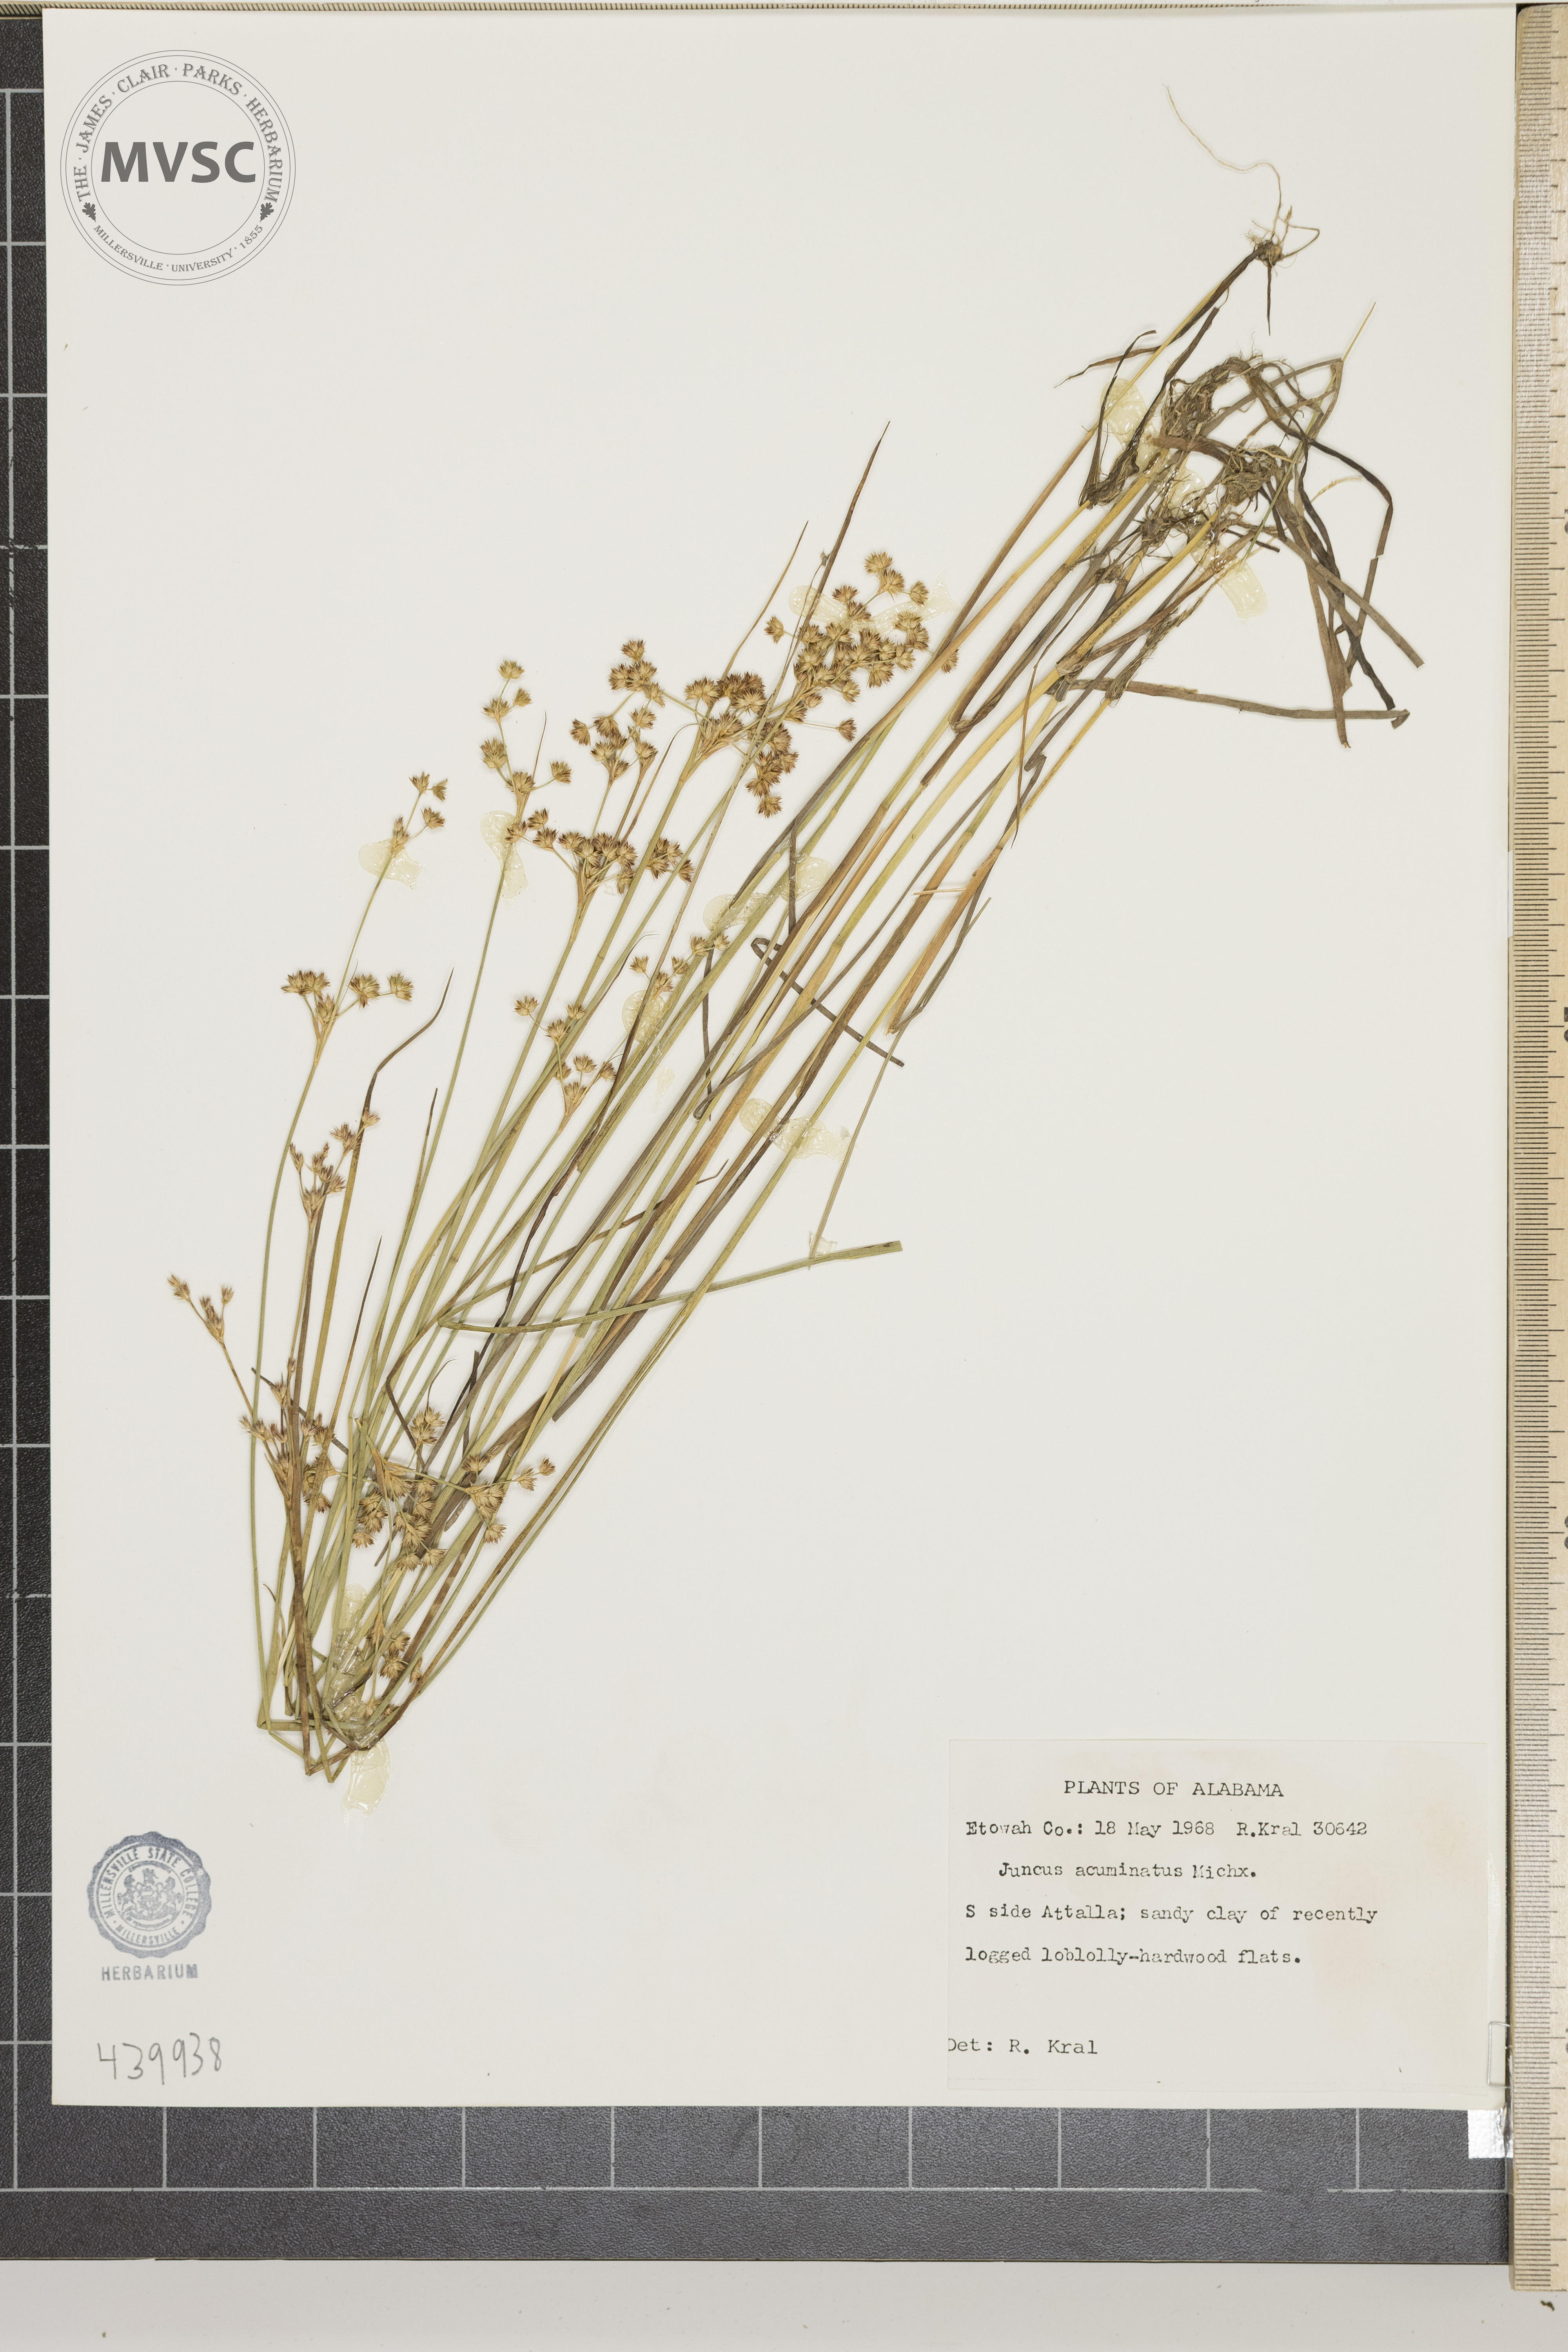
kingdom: Plantae
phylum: Tracheophyta
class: Liliopsida
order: Poales
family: Juncaceae
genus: Juncus
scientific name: Juncus acuminatus
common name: Knotty-leaved rush
